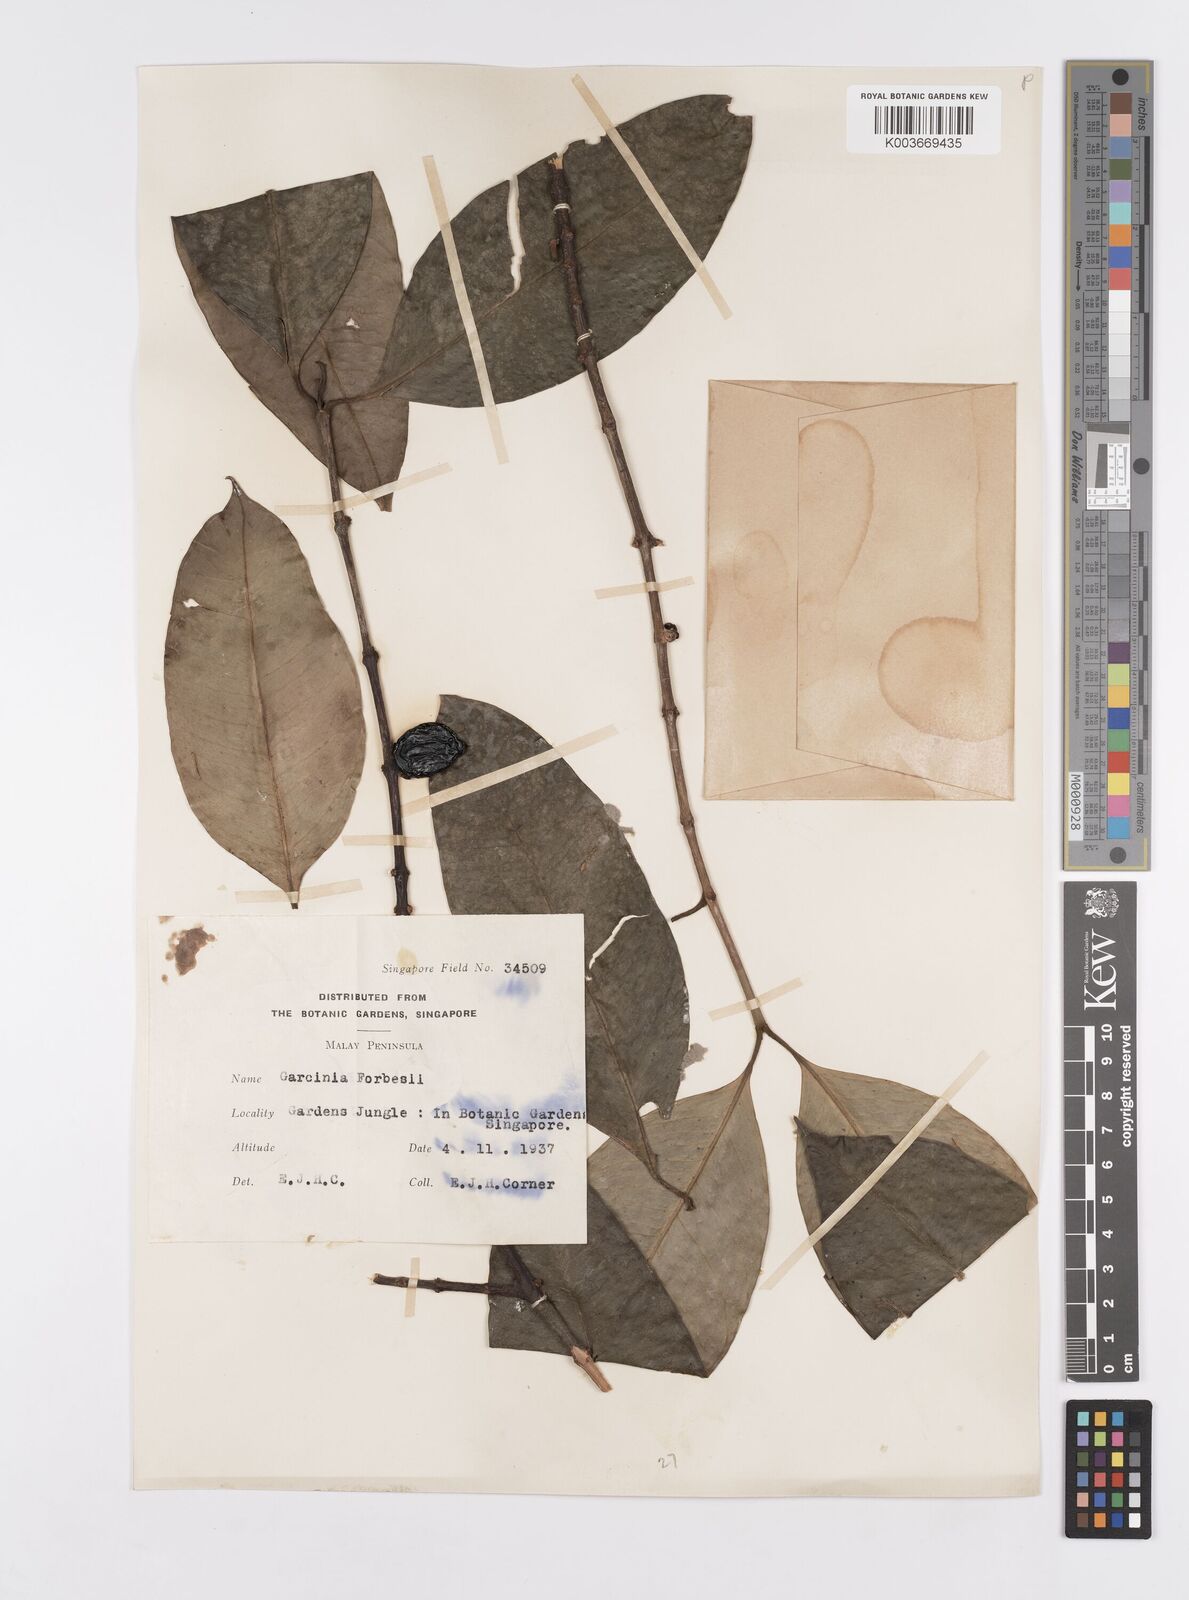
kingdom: Plantae
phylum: Tracheophyta
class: Magnoliopsida
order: Malpighiales
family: Clusiaceae
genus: Garcinia
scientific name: Garcinia forbesii
